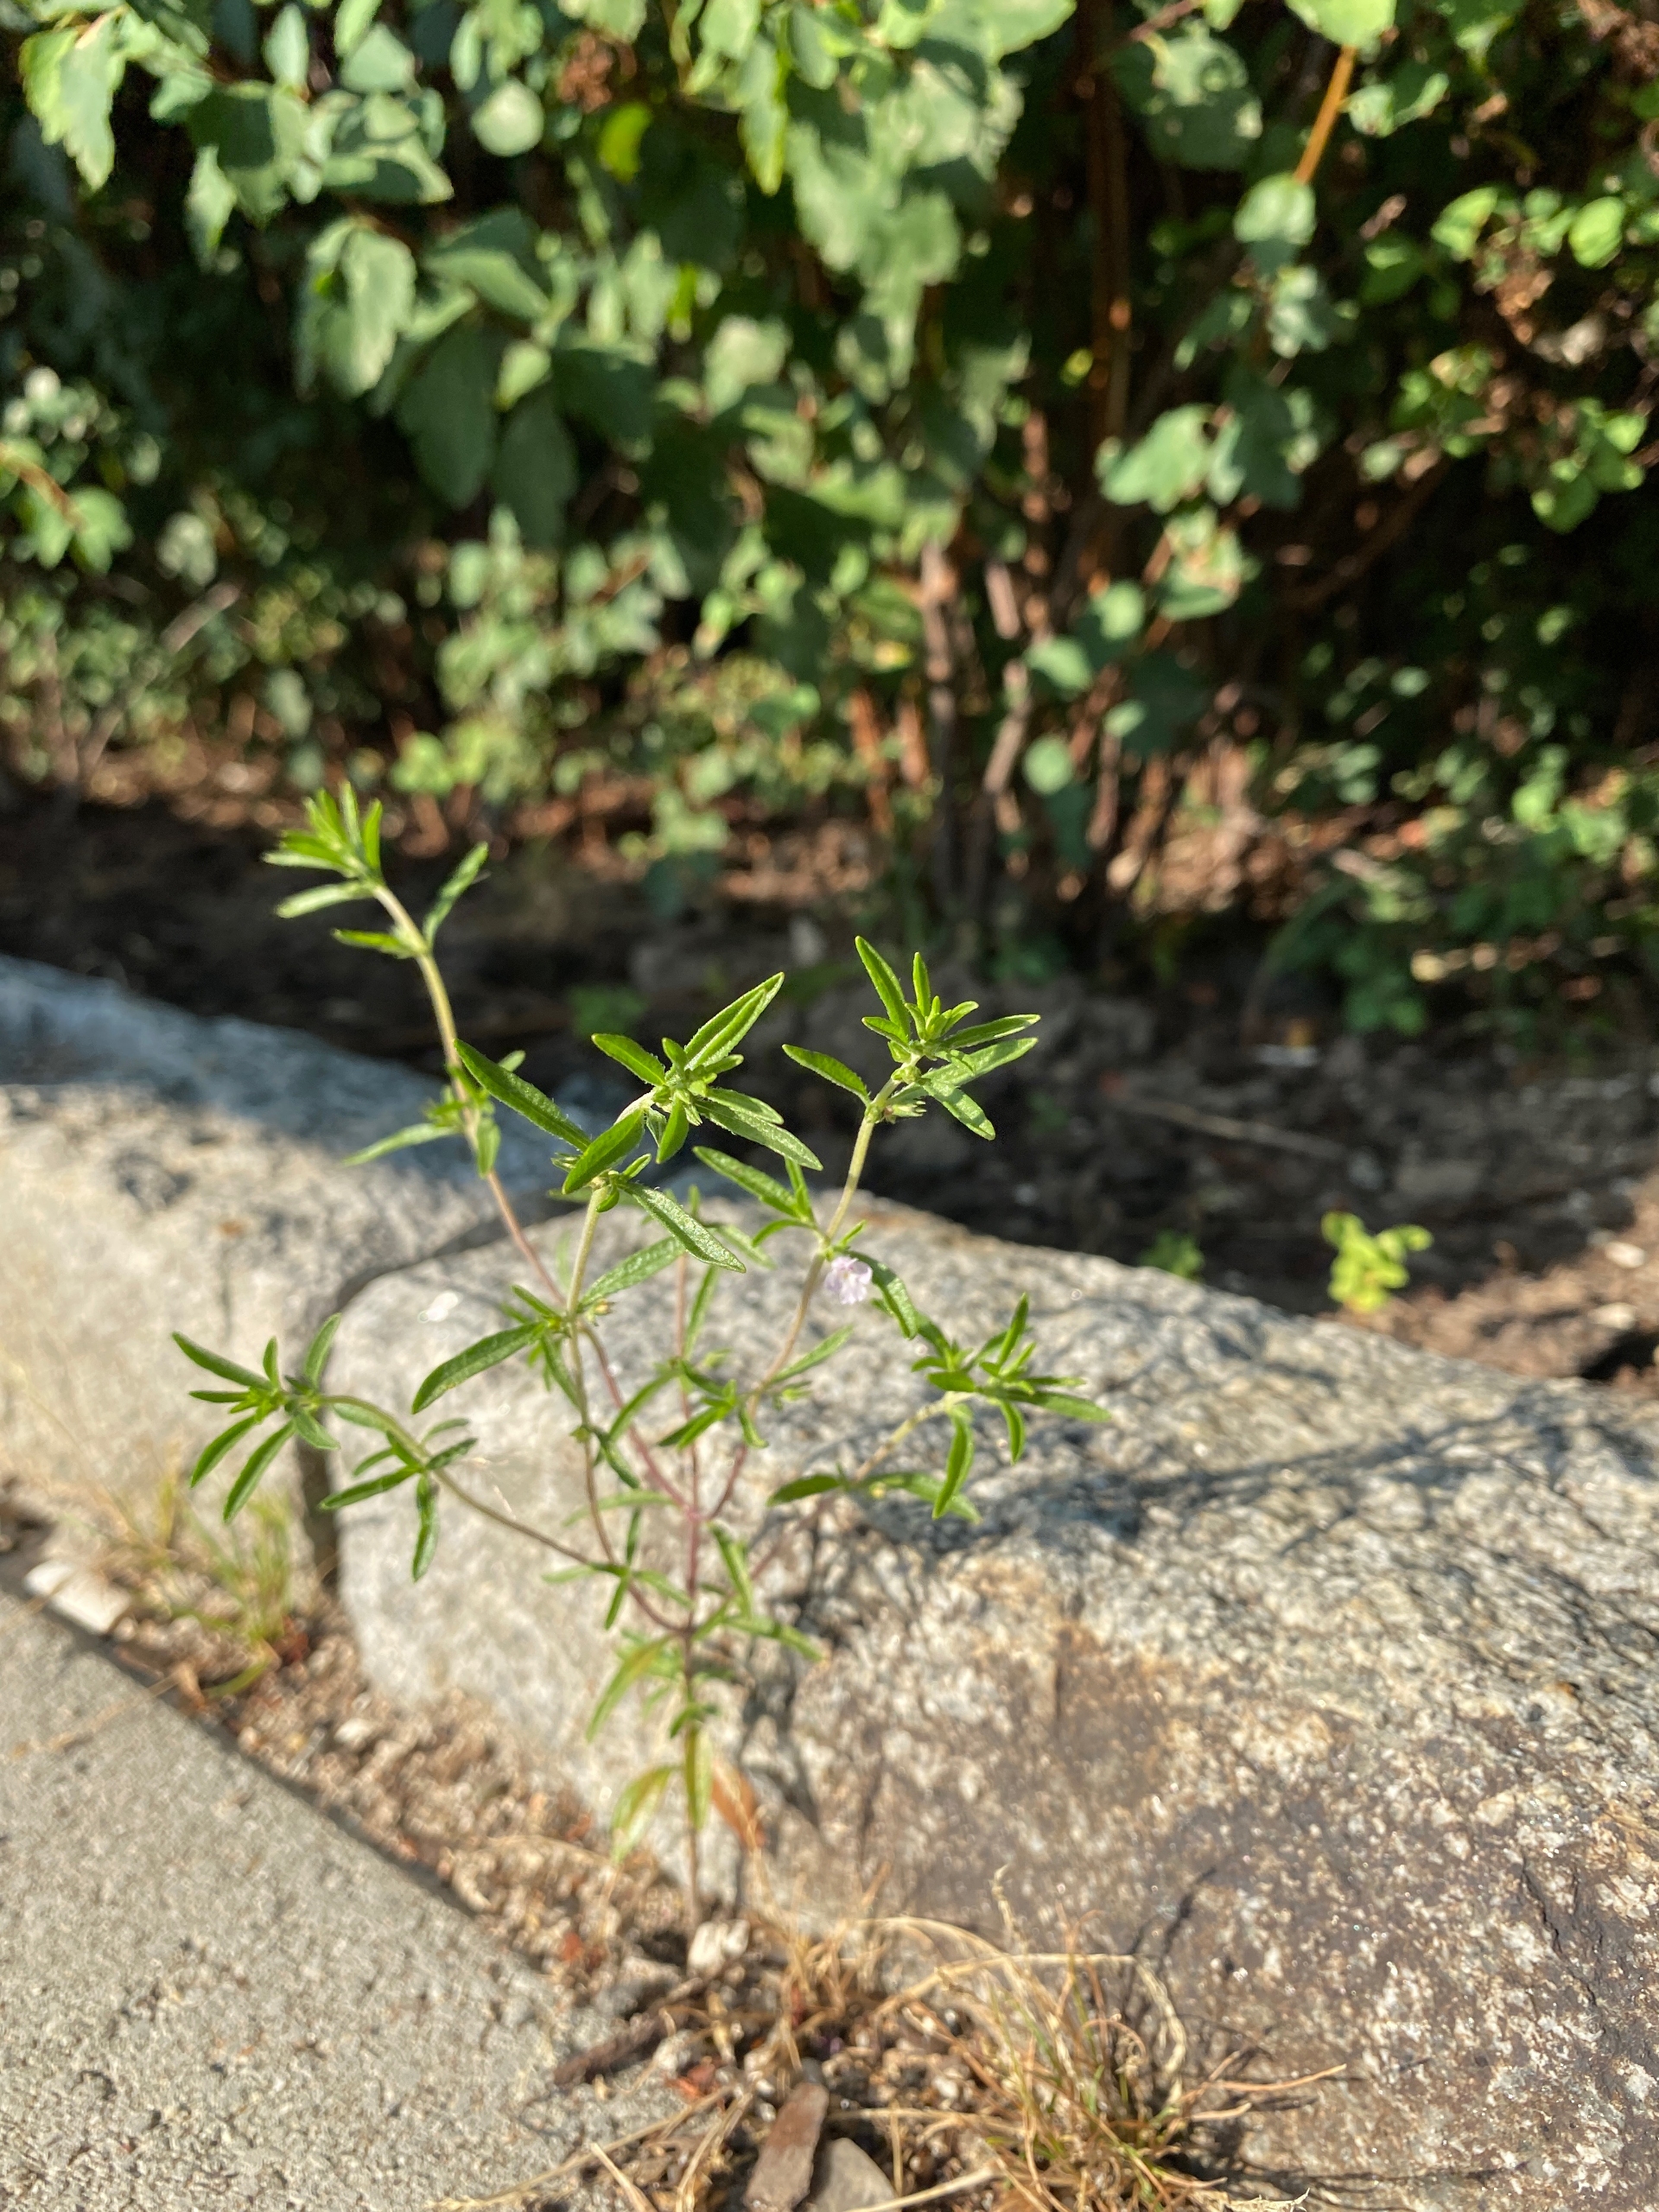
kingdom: Plantae
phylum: Tracheophyta
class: Magnoliopsida
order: Lamiales
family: Lamiaceae
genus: Satureja
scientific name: Satureja hortensis
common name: Almindelig sar
